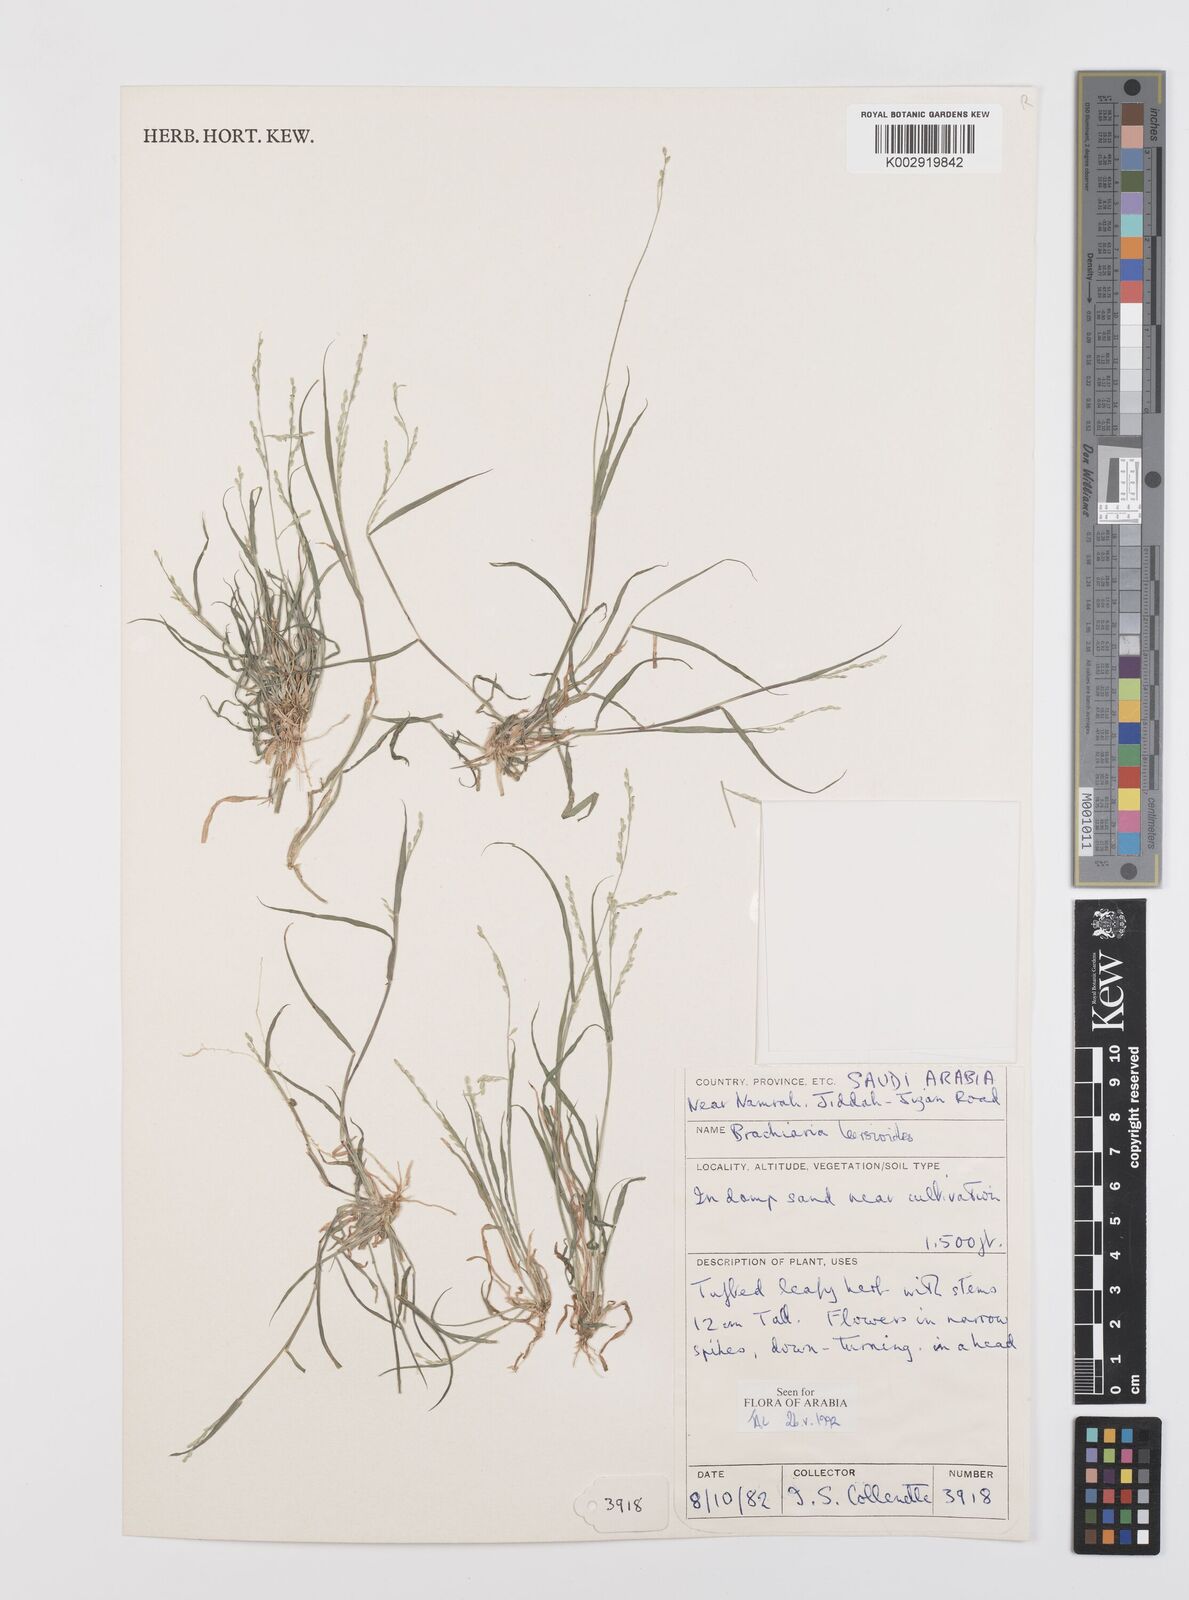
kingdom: Plantae
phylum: Tracheophyta
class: Liliopsida
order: Poales
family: Poaceae
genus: Urochloa
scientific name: Urochloa leersioides
